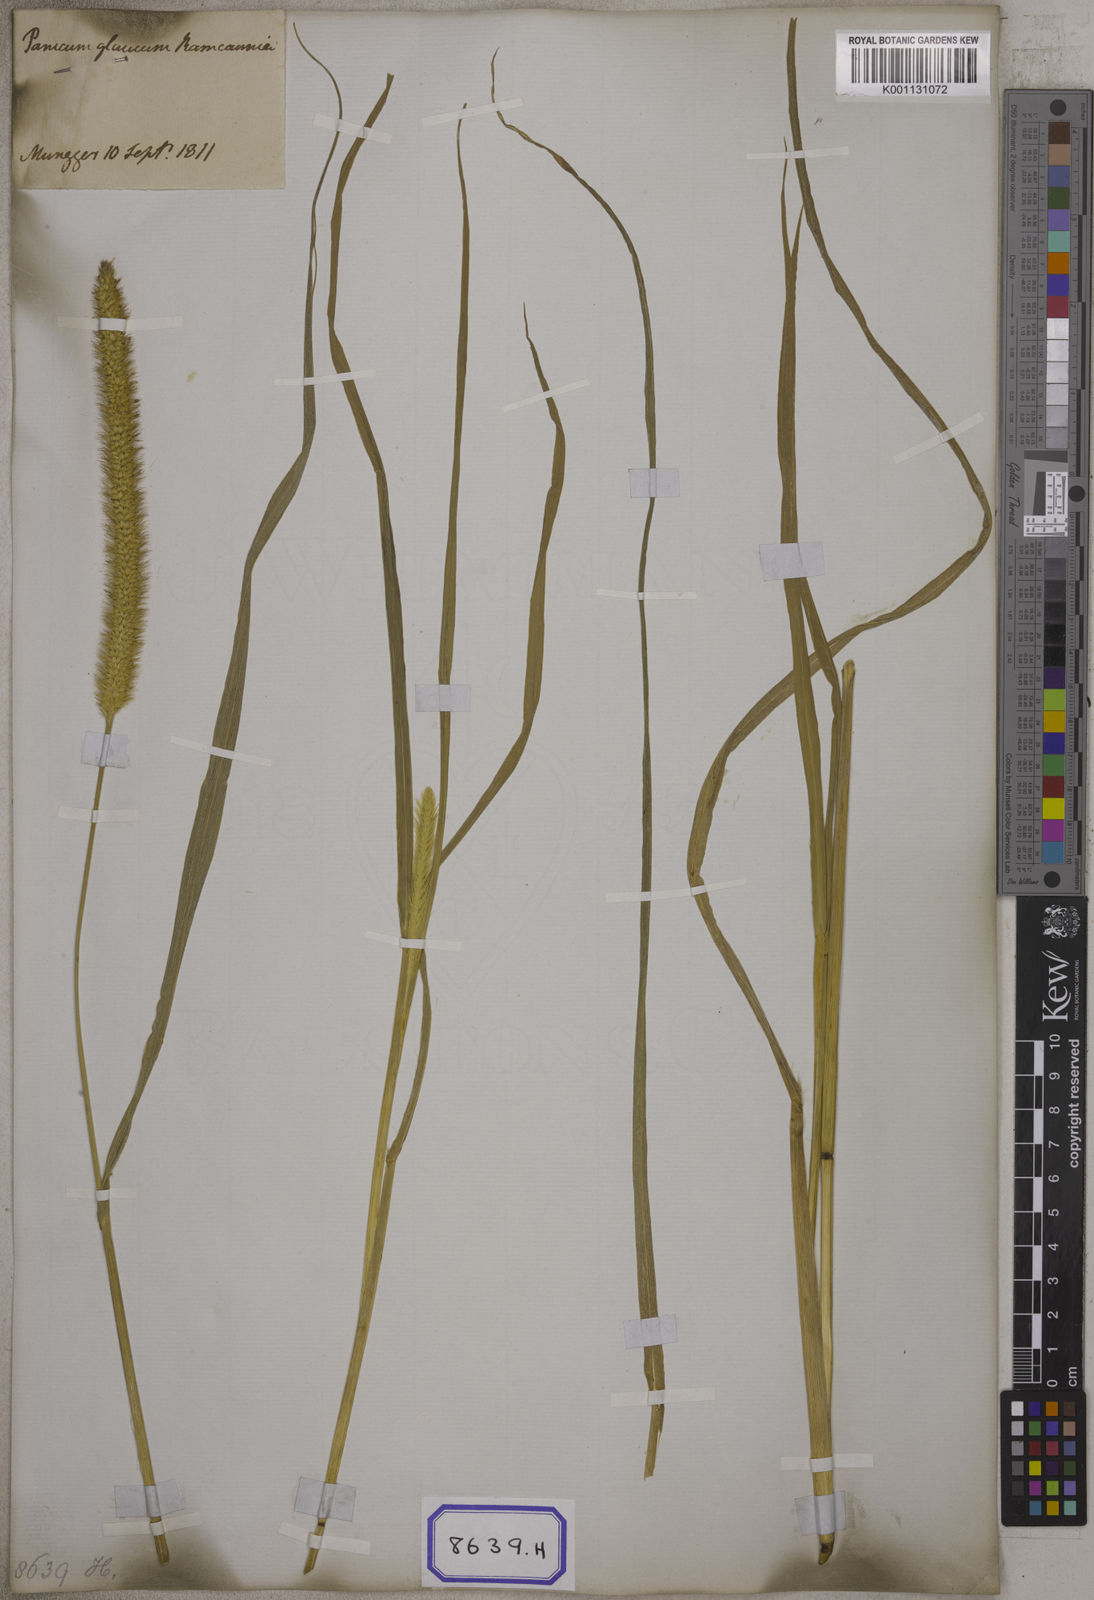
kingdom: Plantae
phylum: Tracheophyta
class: Liliopsida
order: Poales
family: Poaceae
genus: Cenchrus
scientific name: Cenchrus americanus
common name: Pearl millet
